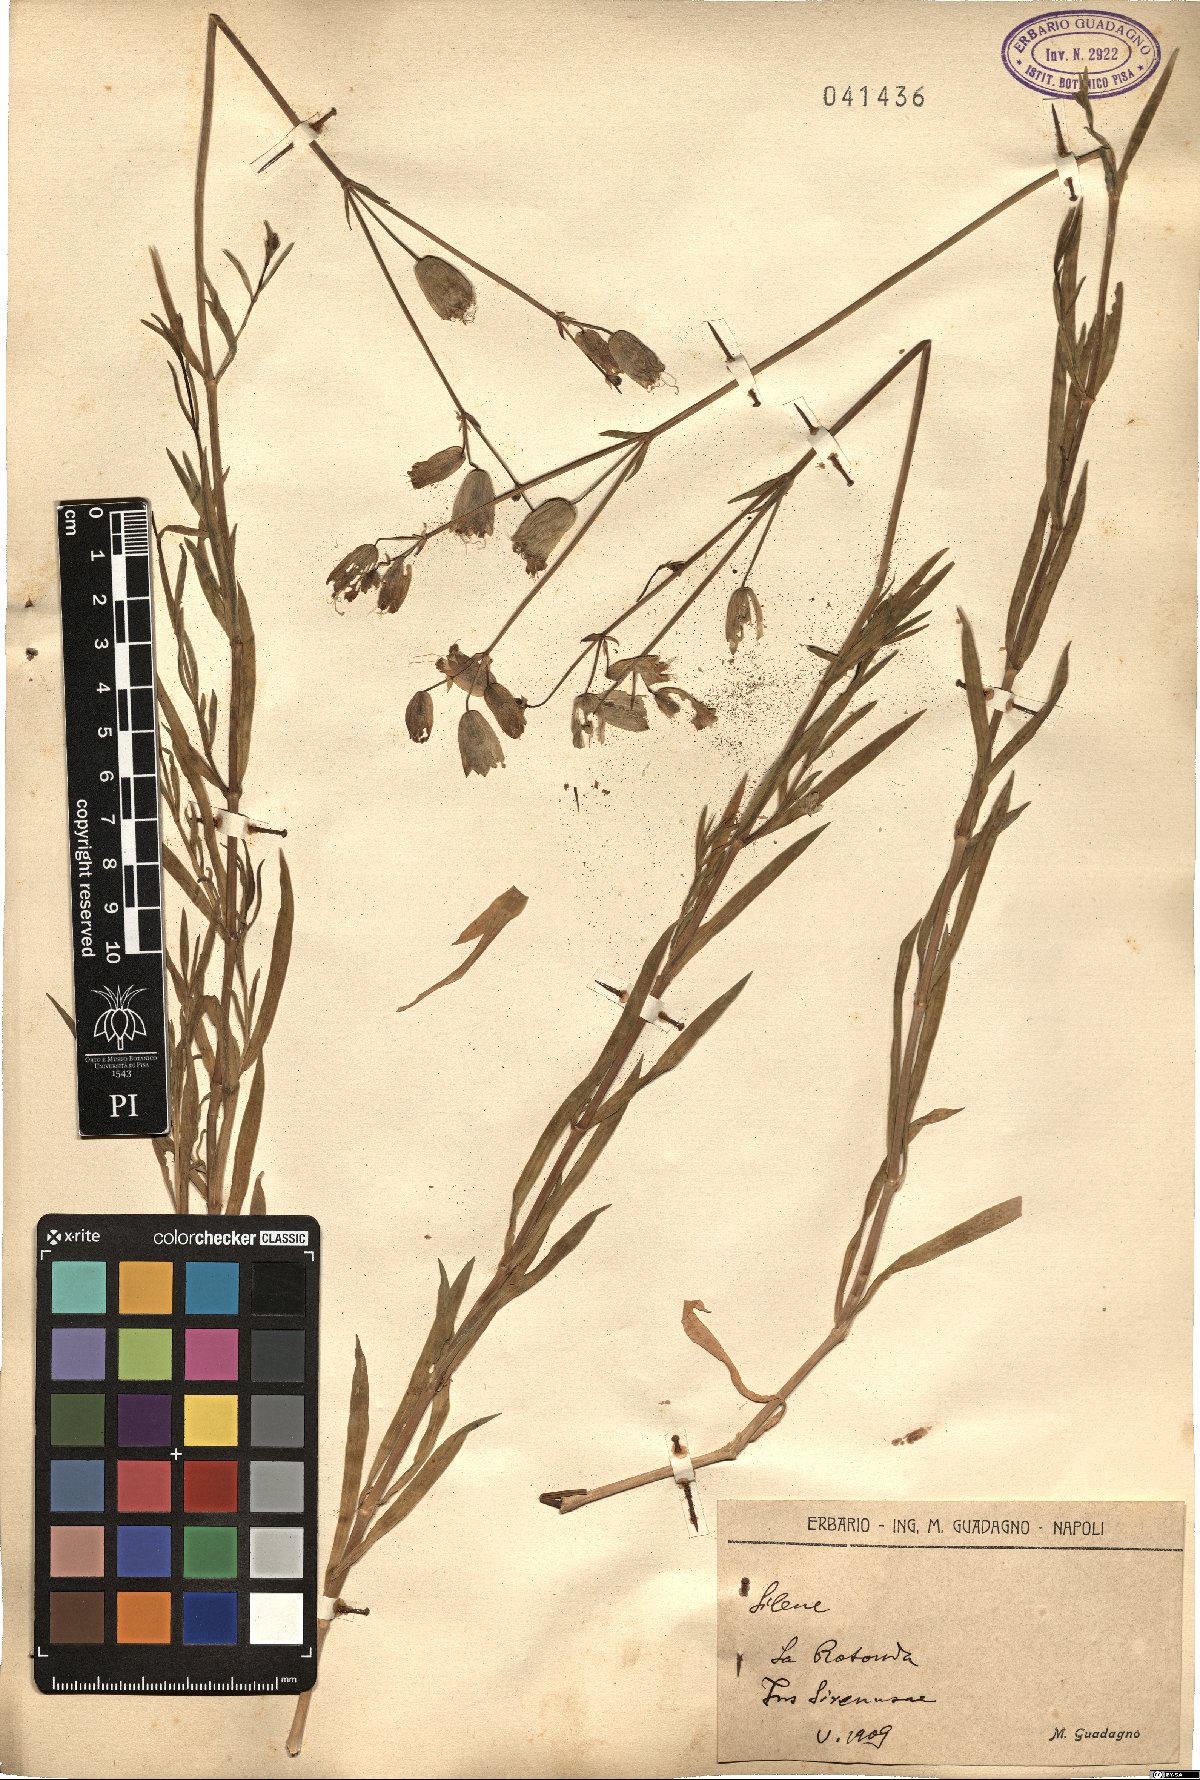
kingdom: Plantae
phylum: Tracheophyta
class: Magnoliopsida
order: Caryophyllales
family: Caryophyllaceae
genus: Silene
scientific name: Silene
